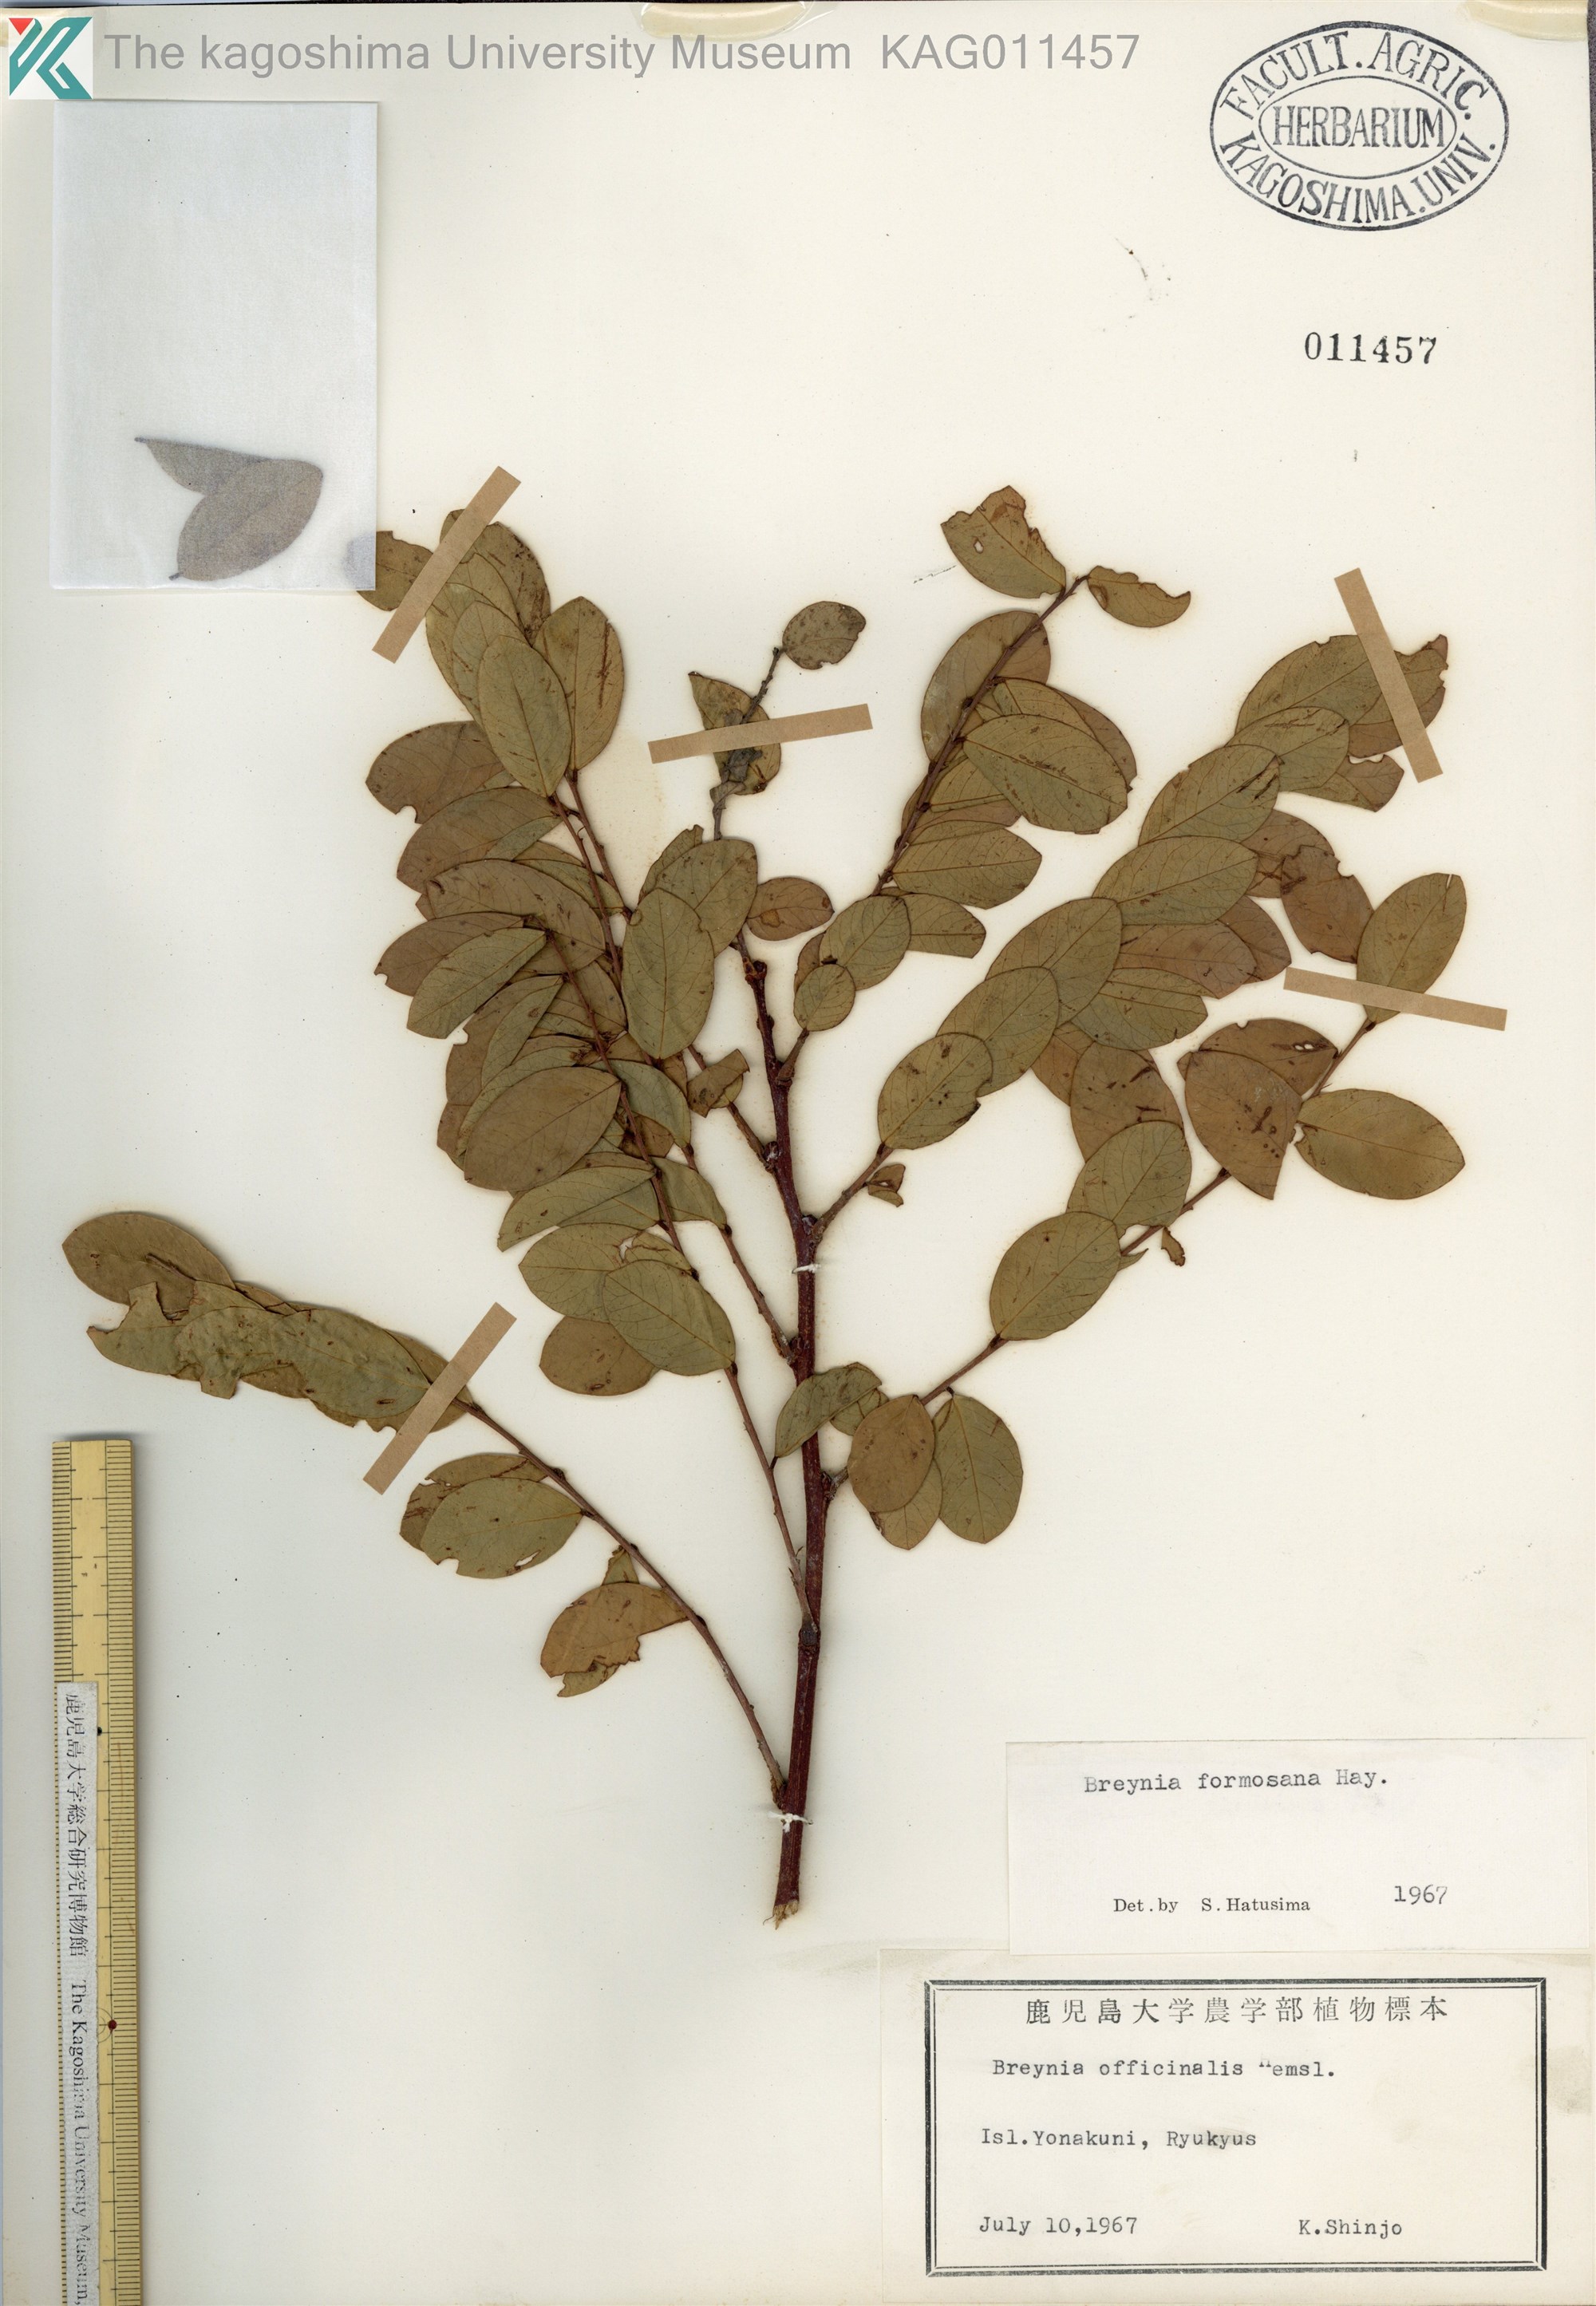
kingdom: Plantae
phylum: Tracheophyta
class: Magnoliopsida
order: Malpighiales
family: Phyllanthaceae
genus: Breynia
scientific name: Breynia officinalis
